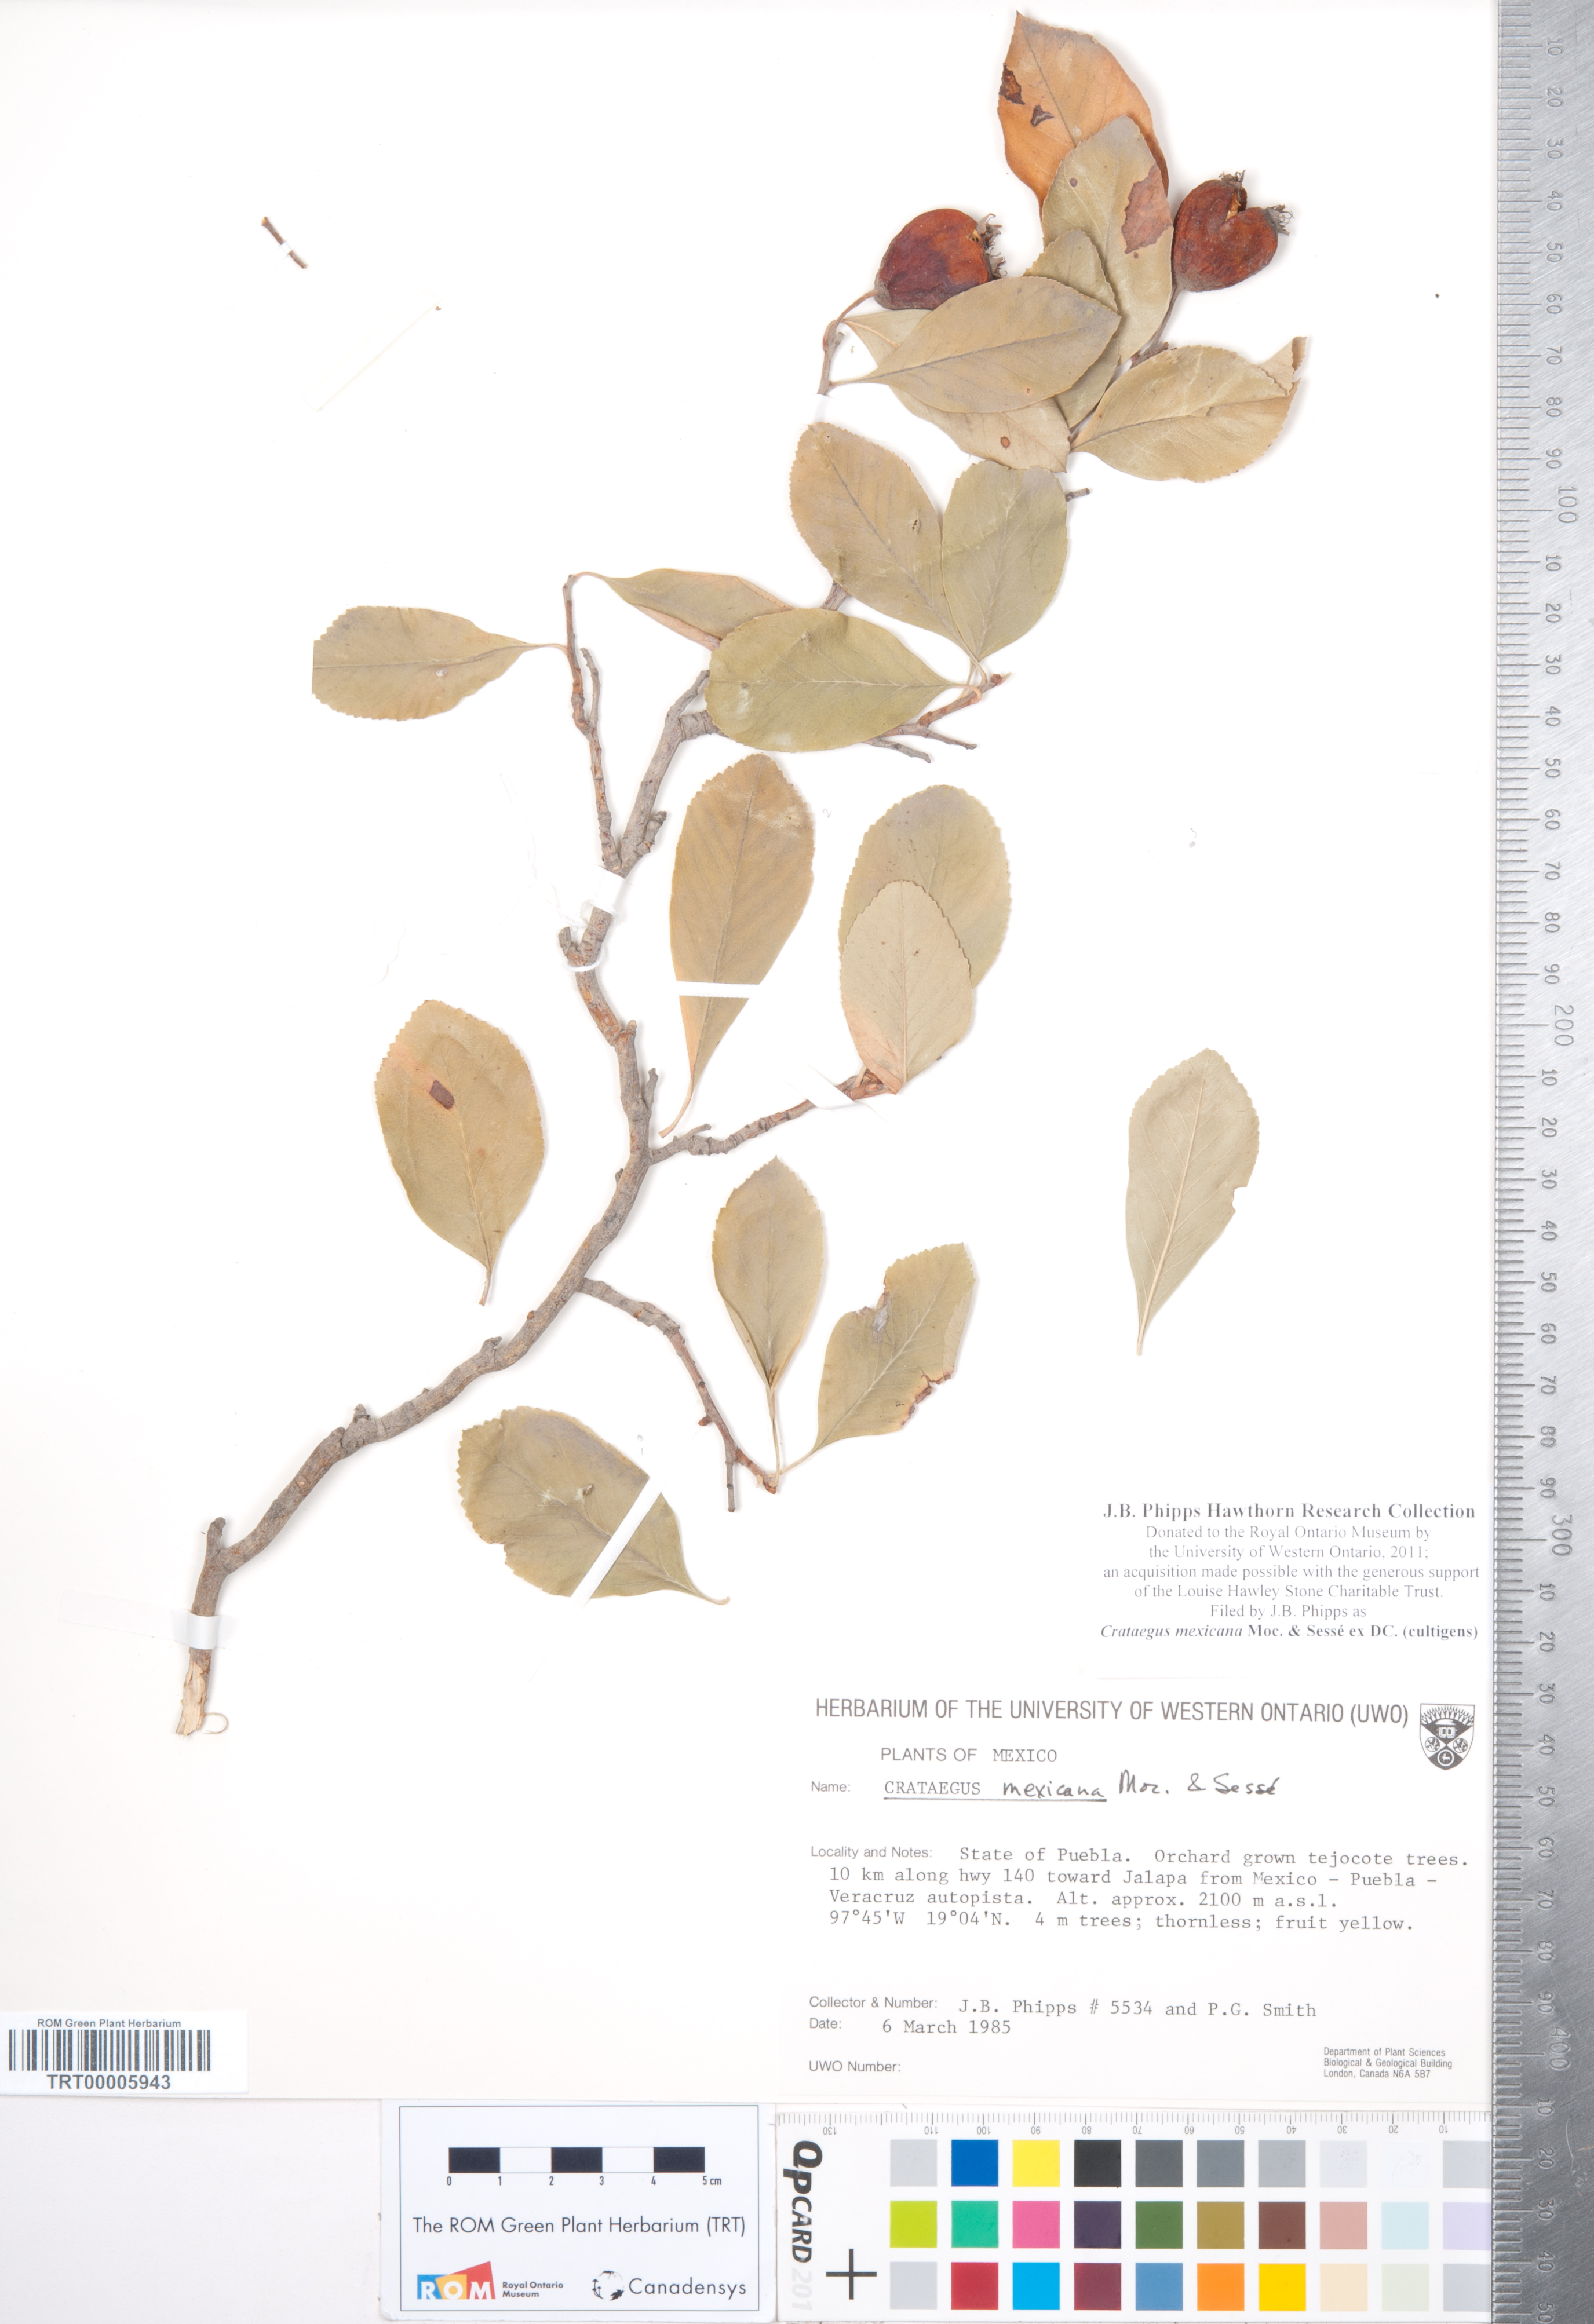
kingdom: Plantae
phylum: Tracheophyta
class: Magnoliopsida
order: Rosales
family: Rosaceae
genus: Crataegus
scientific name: Crataegus mexicana
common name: Mexican hawthorn
